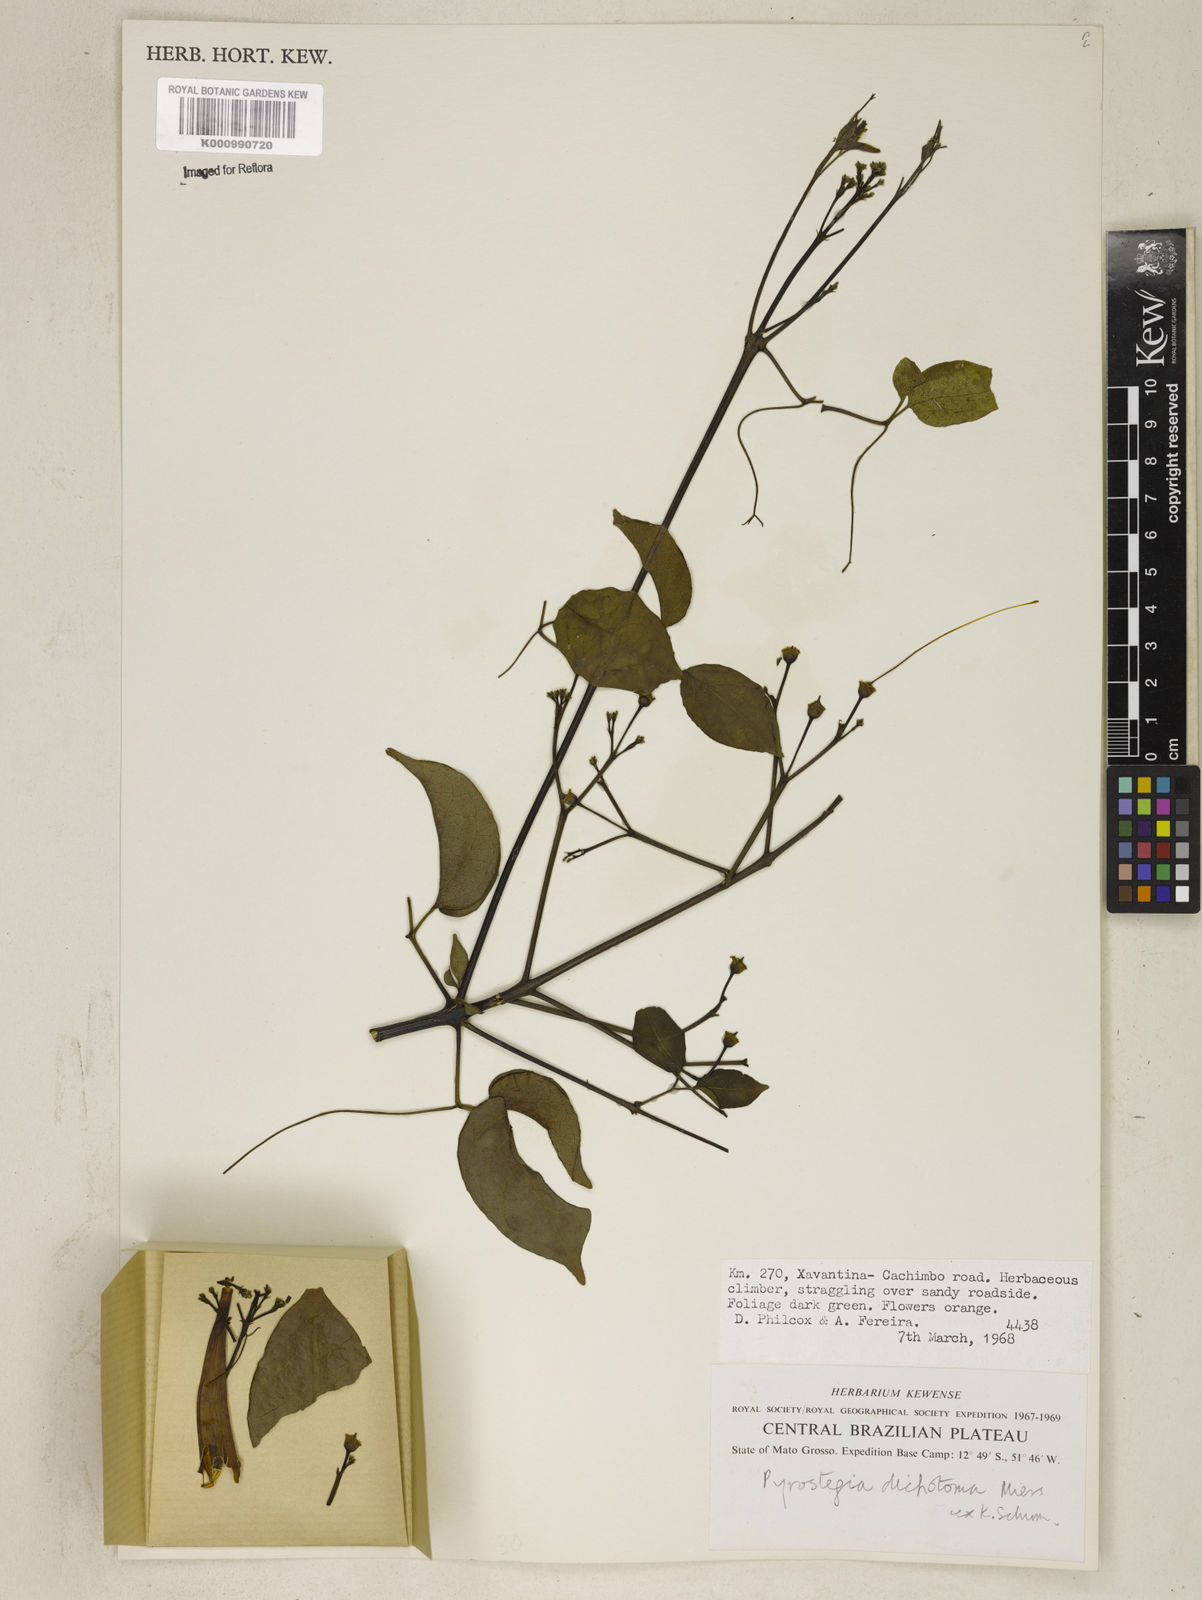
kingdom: Plantae
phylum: Tracheophyta
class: Magnoliopsida
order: Lamiales
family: Bignoniaceae
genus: Pyrostegia
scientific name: Pyrostegia
